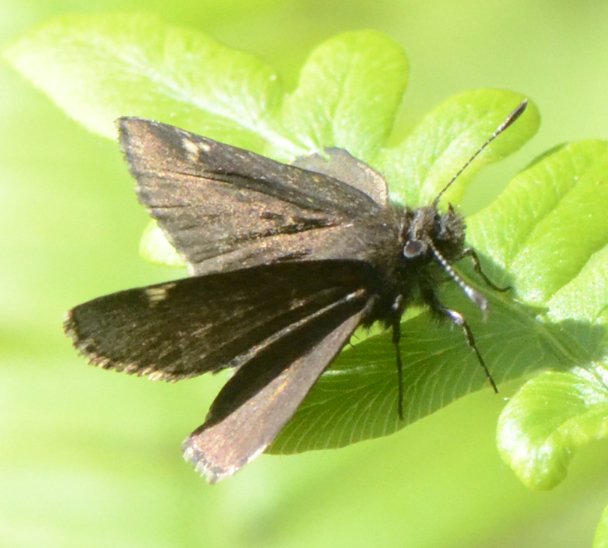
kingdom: Animalia
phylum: Arthropoda
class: Insecta
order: Lepidoptera
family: Hesperiidae
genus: Lon
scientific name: Lon hobomok
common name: Hobomok Skipper
